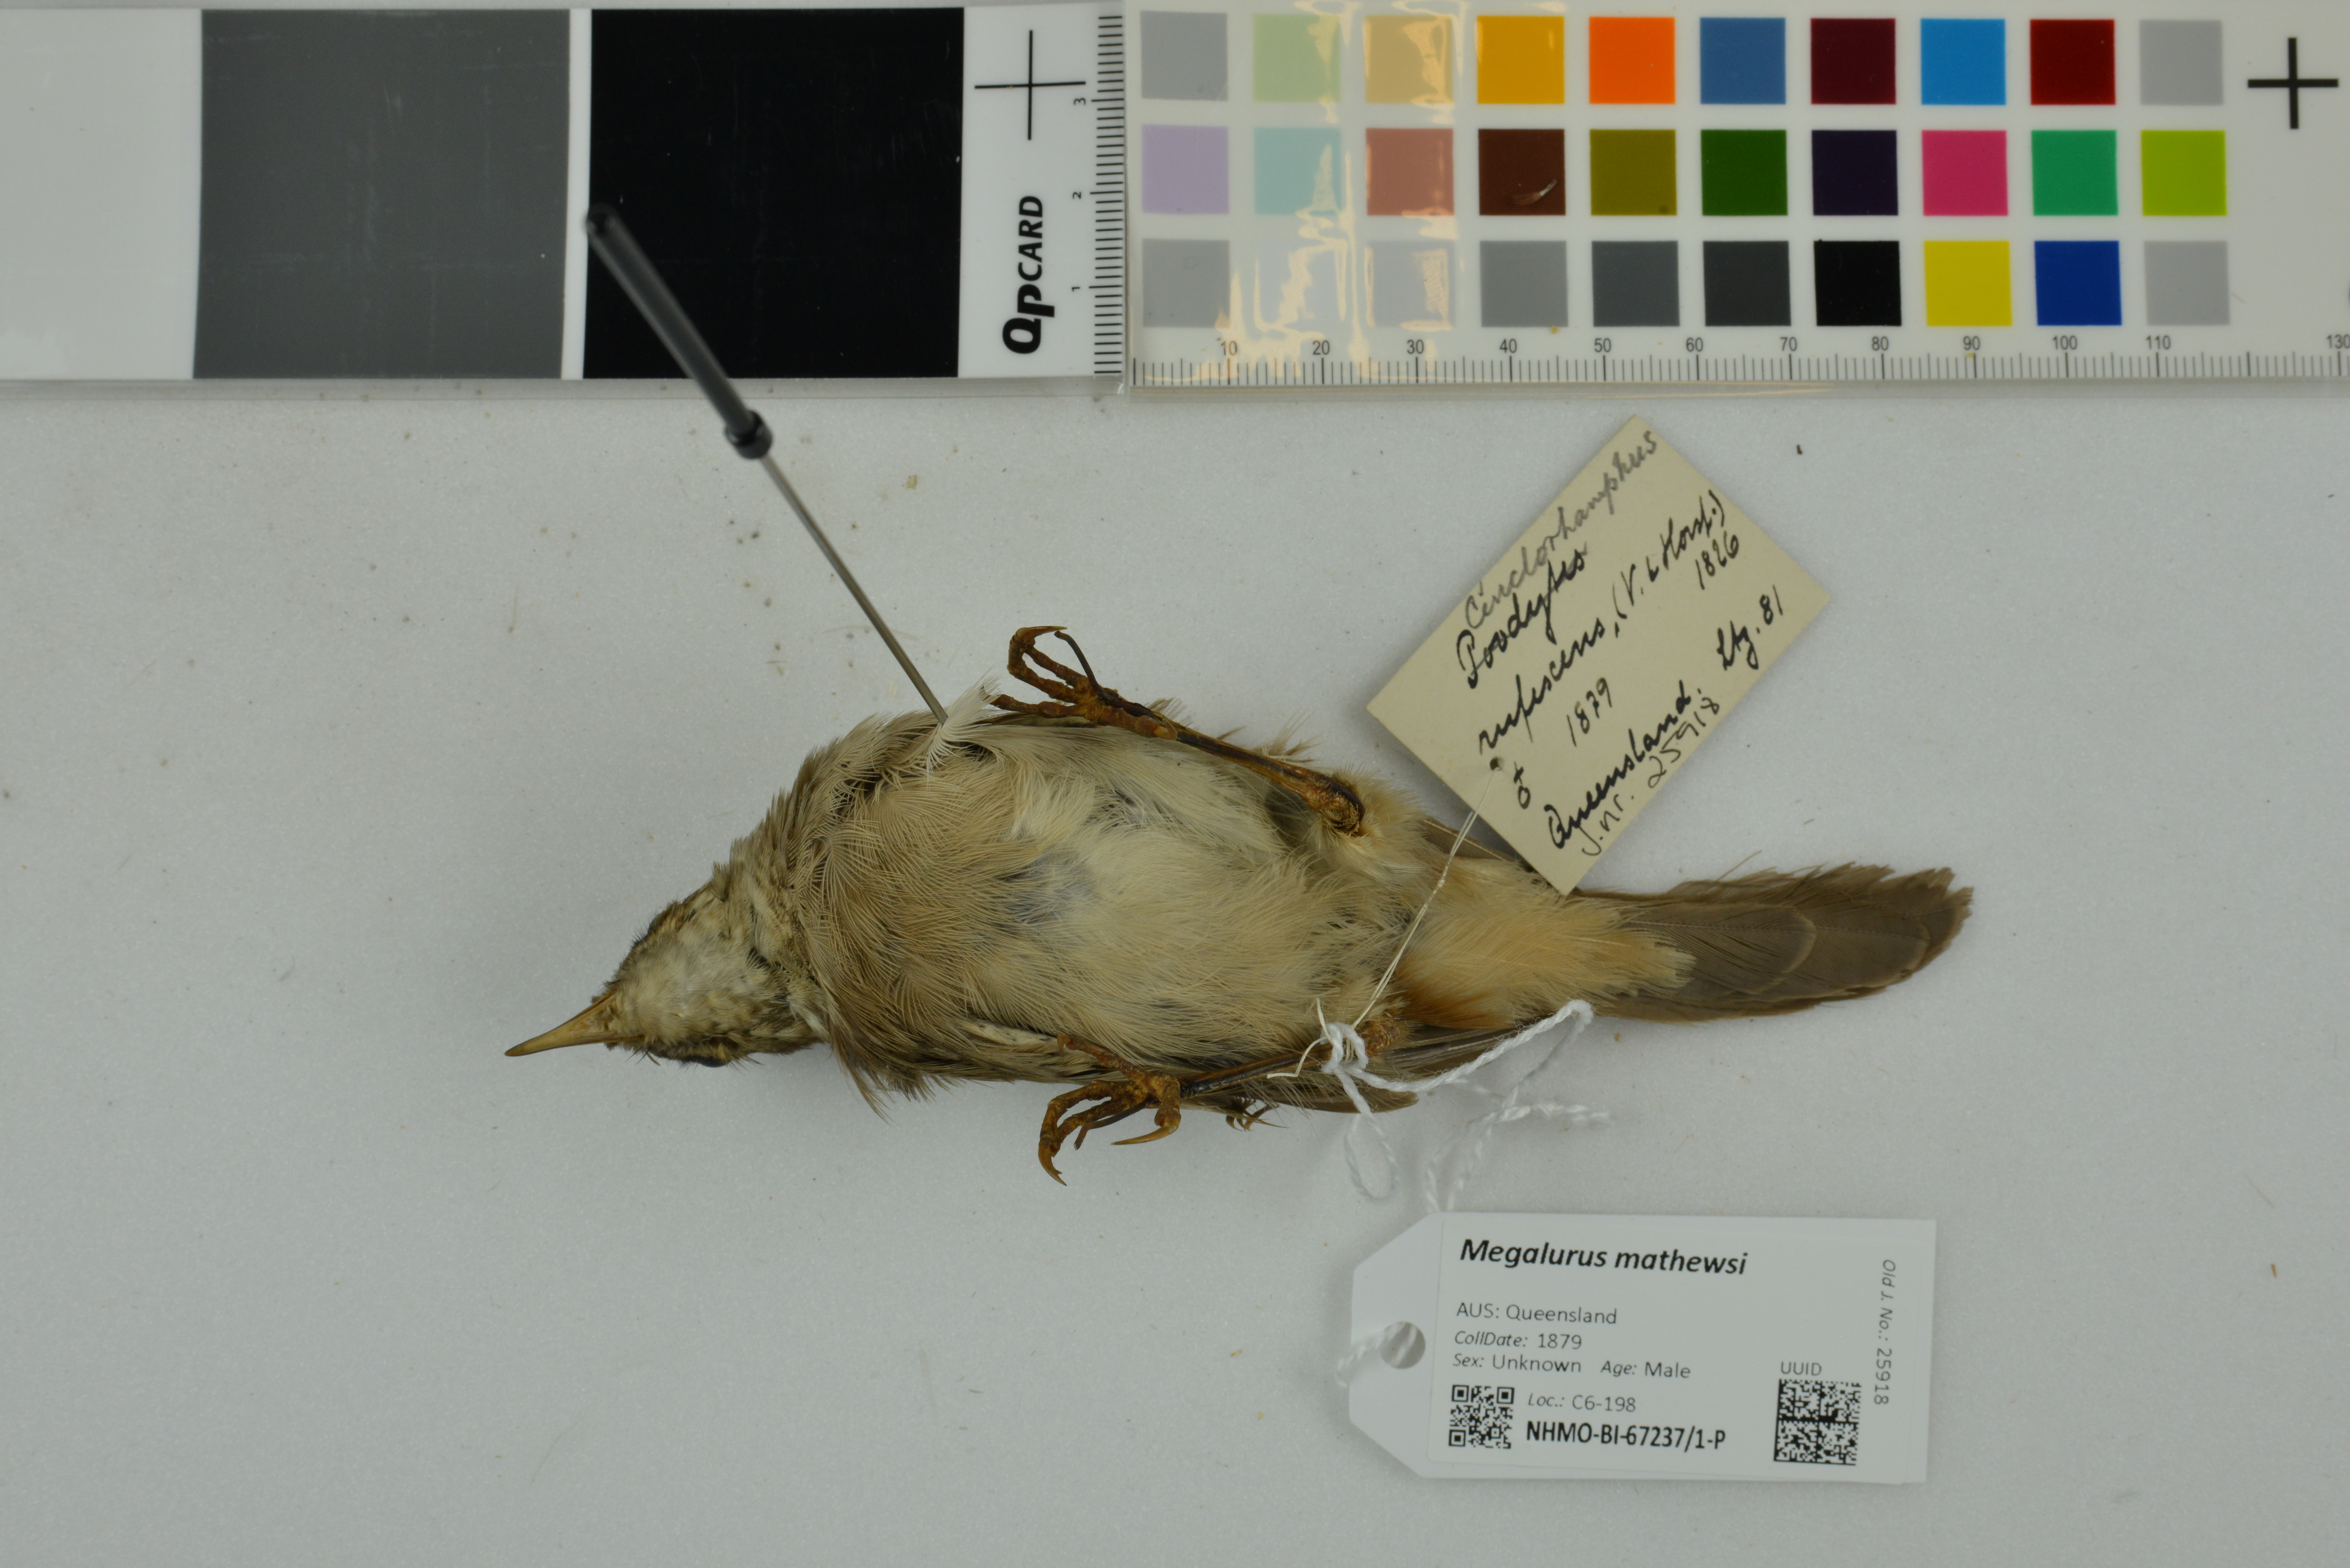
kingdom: Animalia
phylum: Chordata
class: Aves
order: Passeriformes
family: Locustellidae
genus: Megalurus
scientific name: Megalurus mathewsi
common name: Rufous songlark
